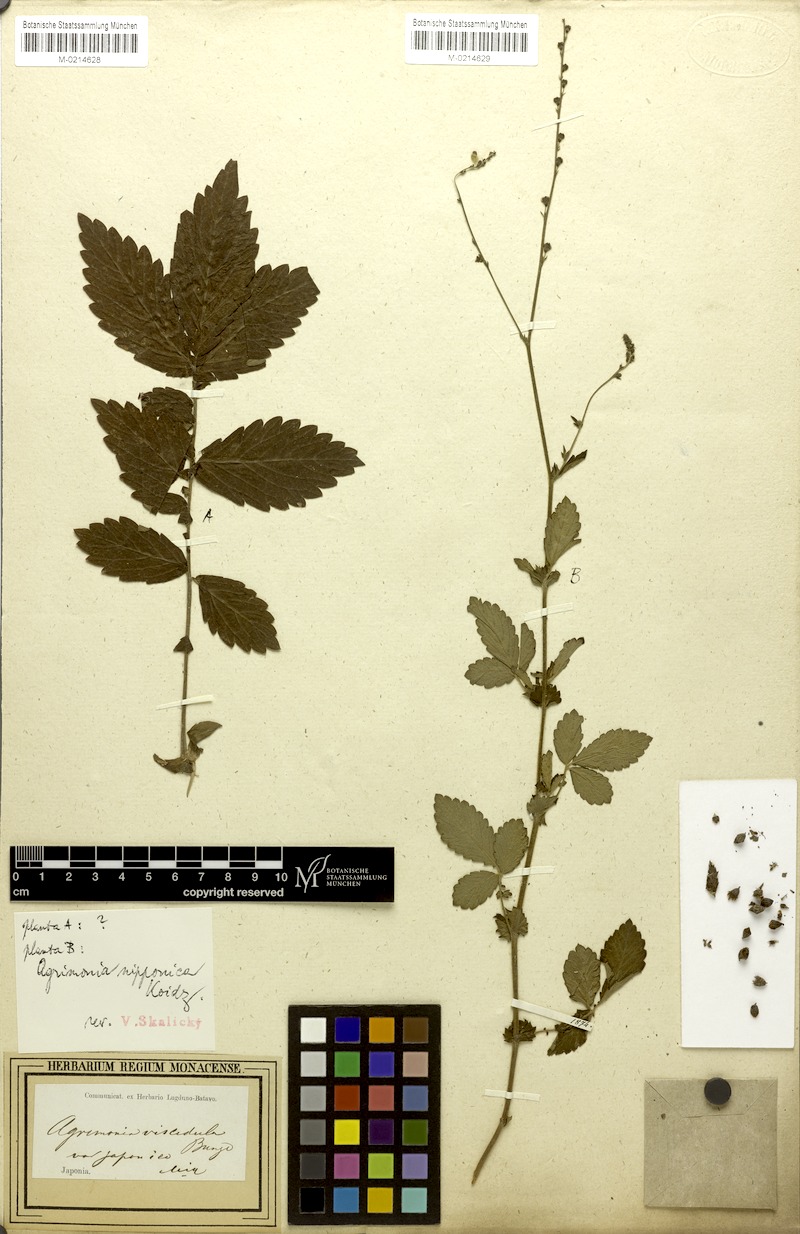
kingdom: Plantae
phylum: Tracheophyta
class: Magnoliopsida
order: Rosales
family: Rosaceae
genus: Agrimonia
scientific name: Agrimonia nipponica
